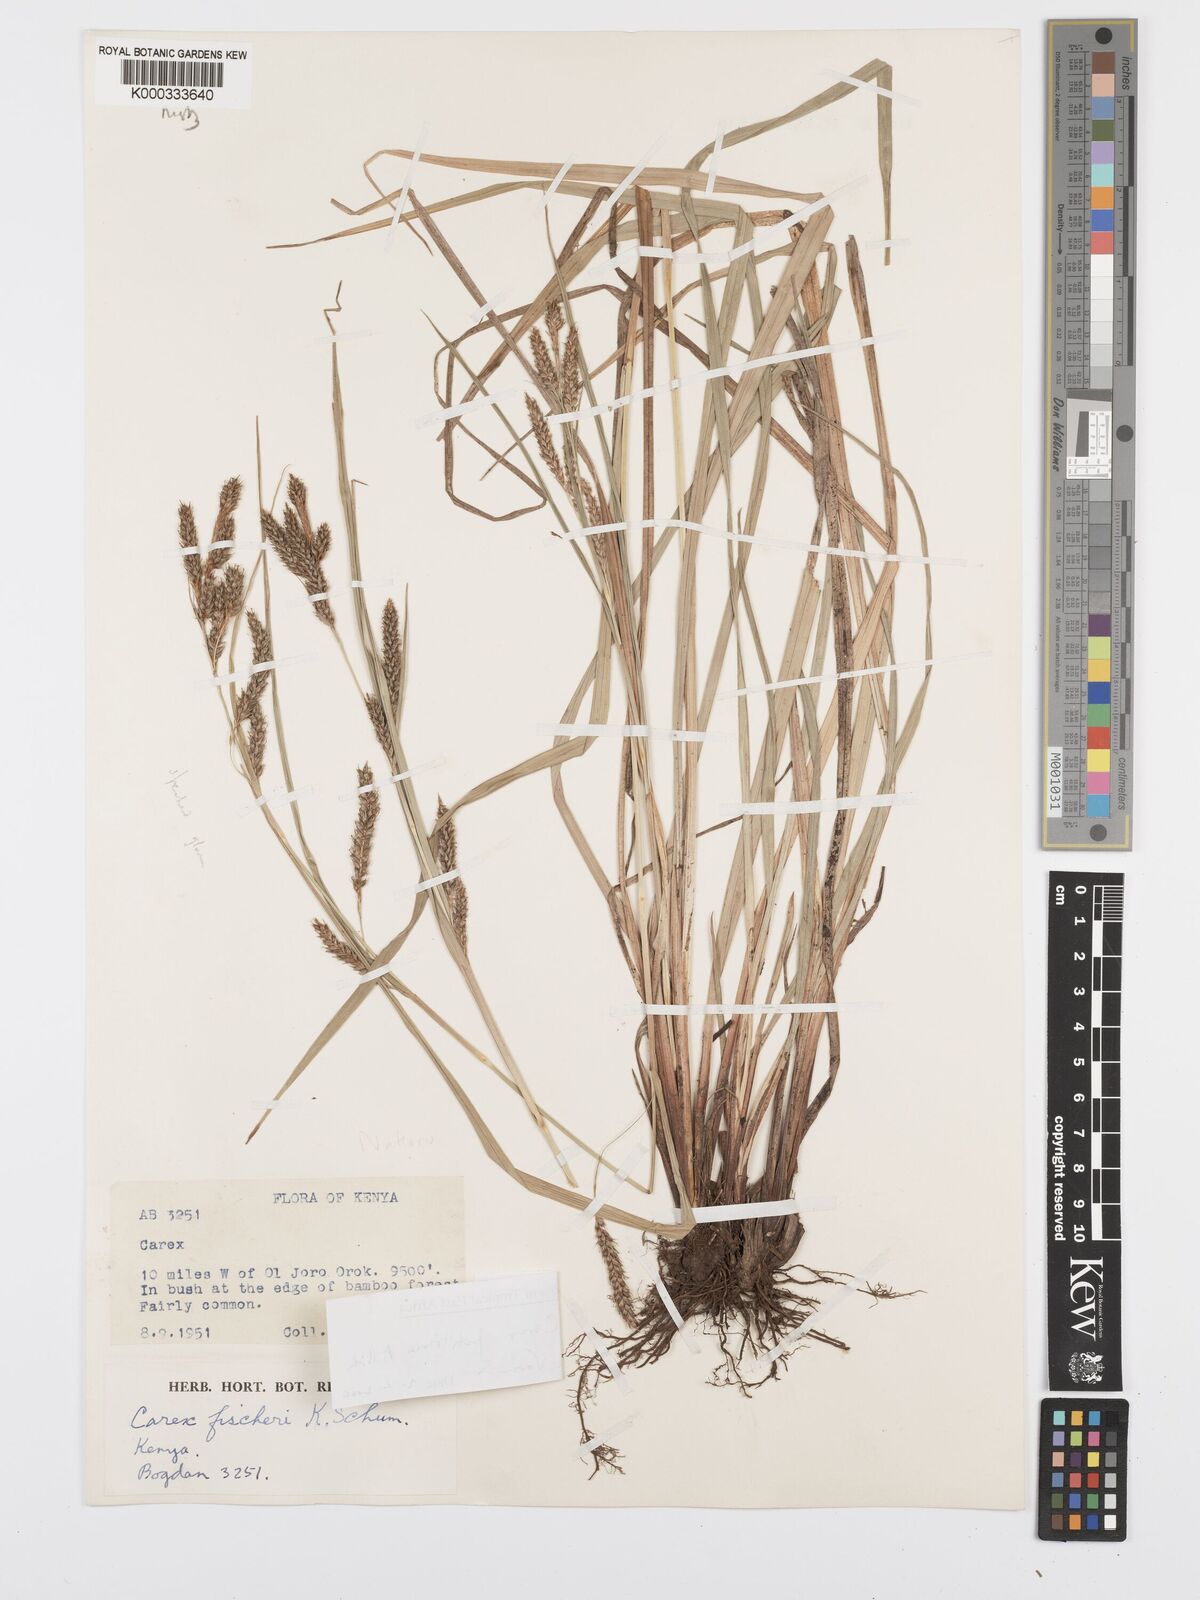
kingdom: Plantae
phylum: Tracheophyta
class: Liliopsida
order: Poales
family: Cyperaceae
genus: Carex
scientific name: Carex petitiana
